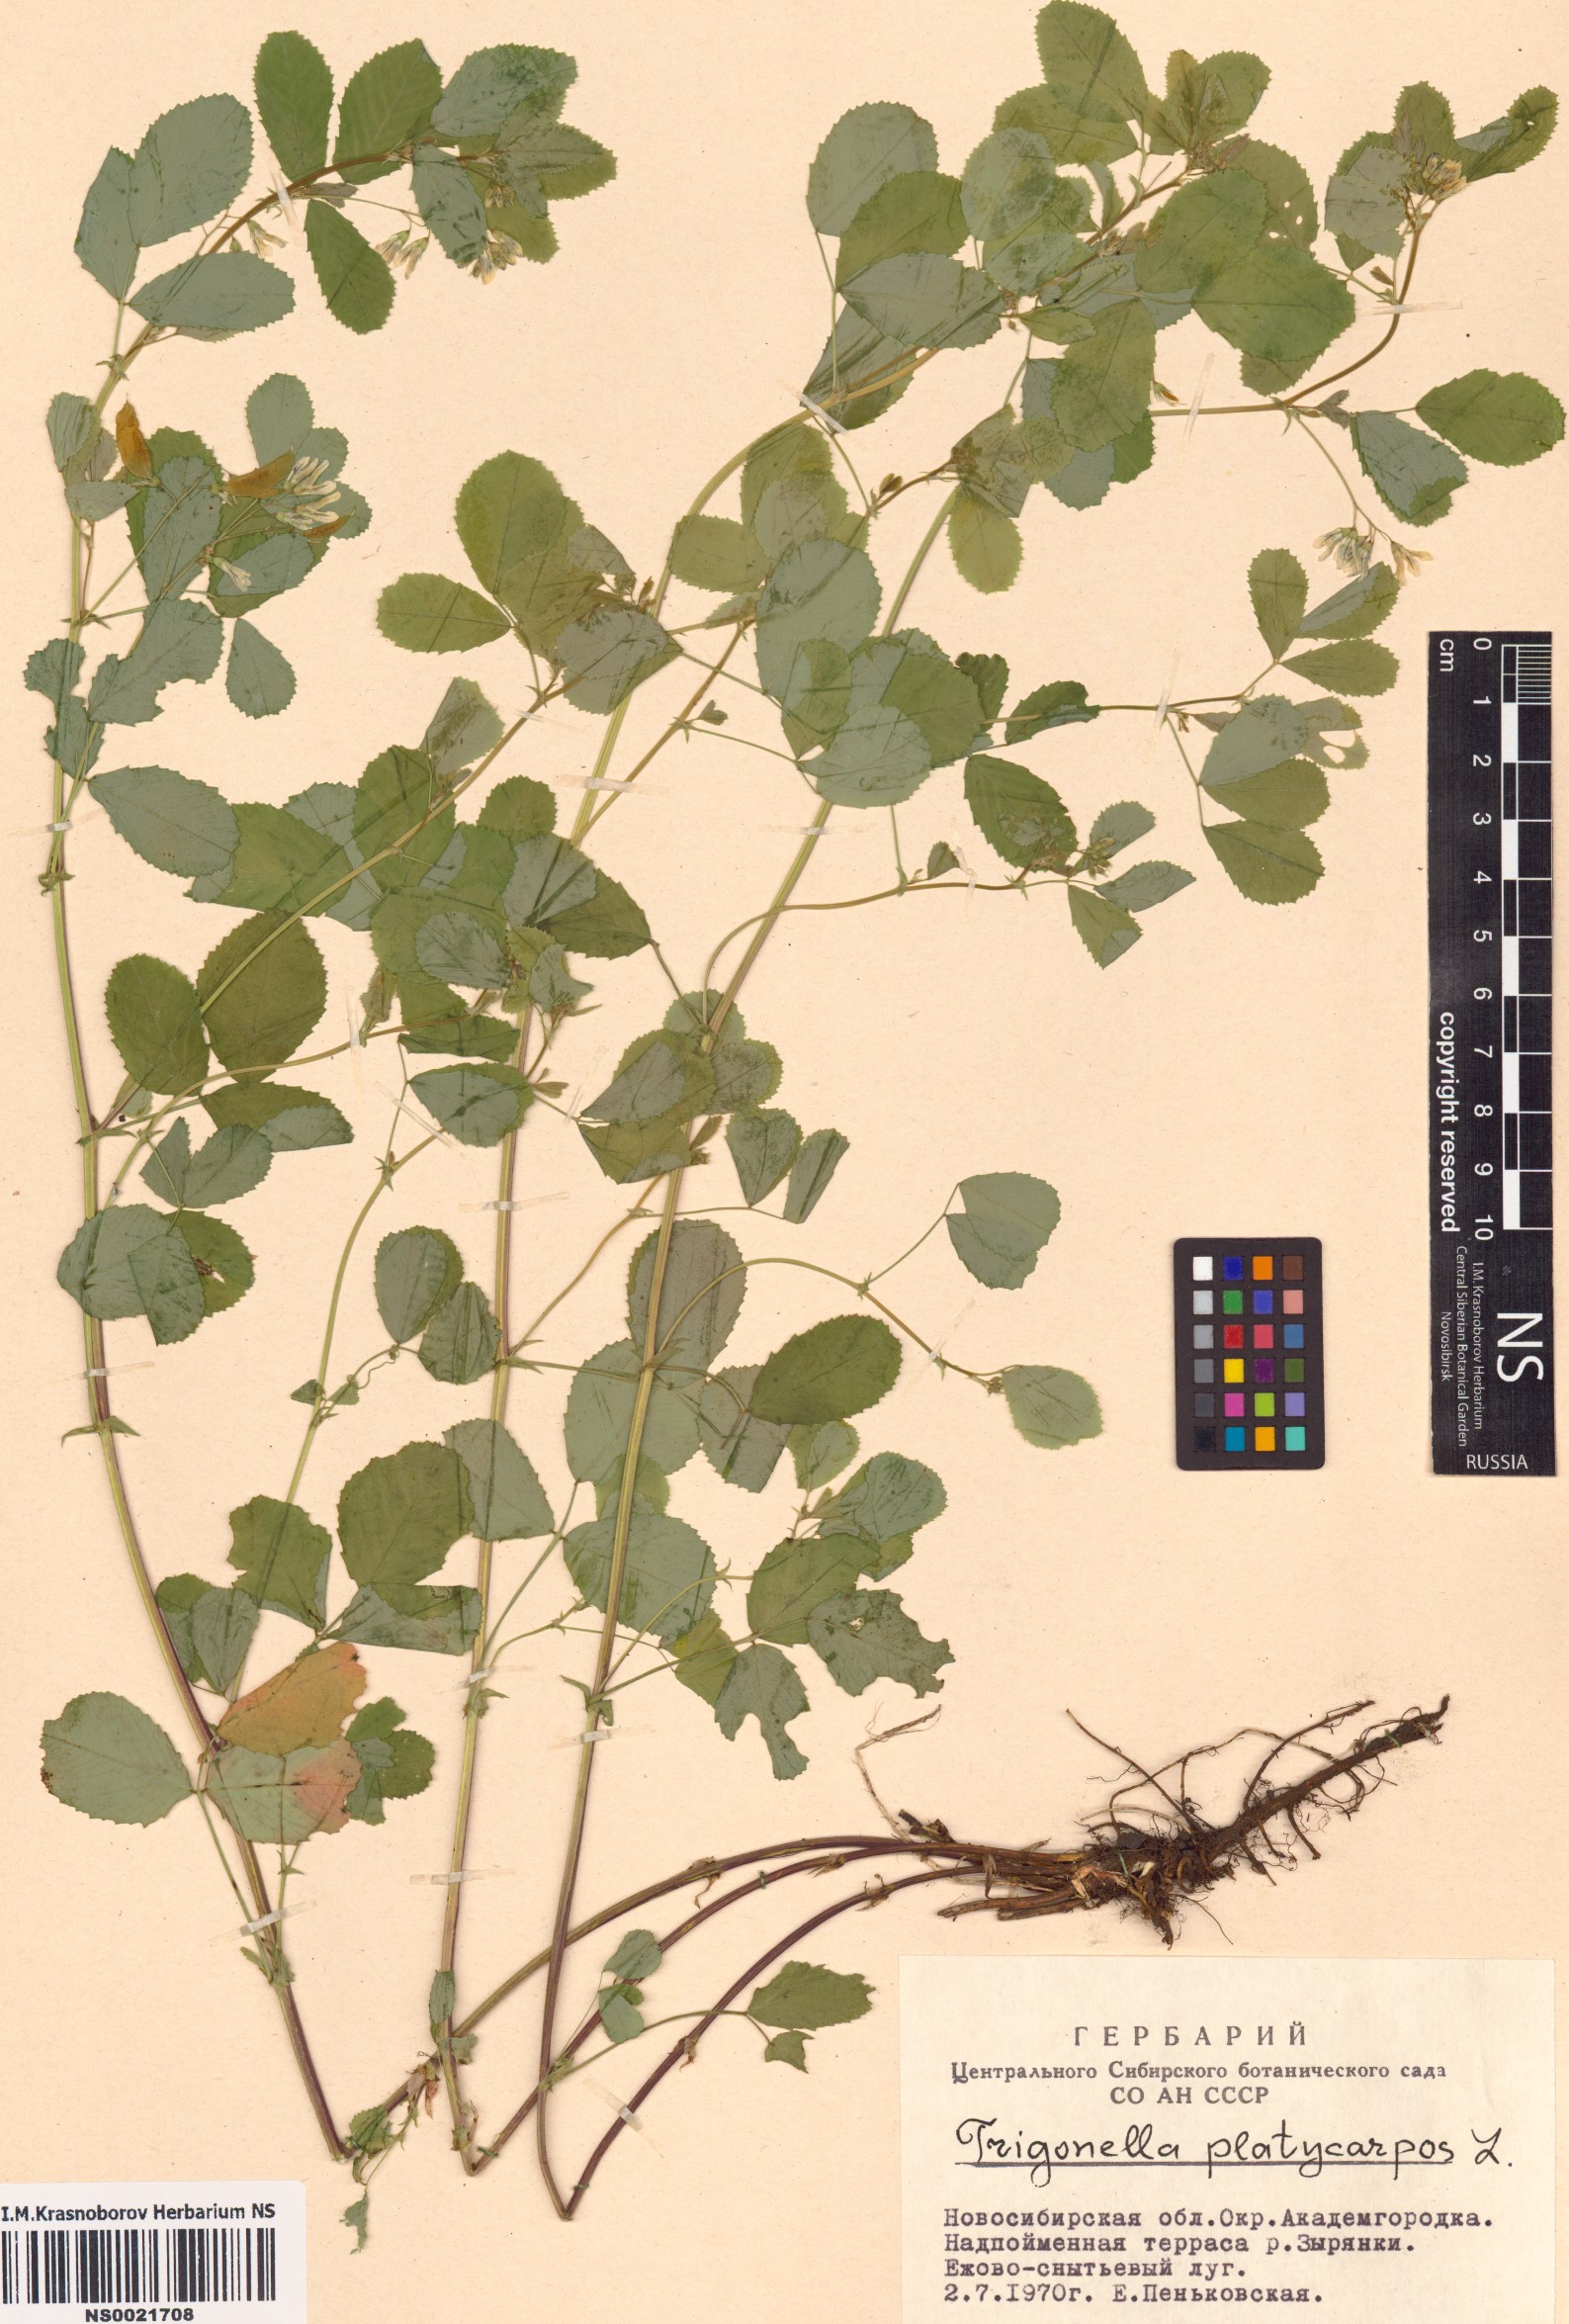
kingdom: Plantae
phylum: Tracheophyta
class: Magnoliopsida
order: Fabales
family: Fabaceae
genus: Medicago
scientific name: Medicago platycarpos
